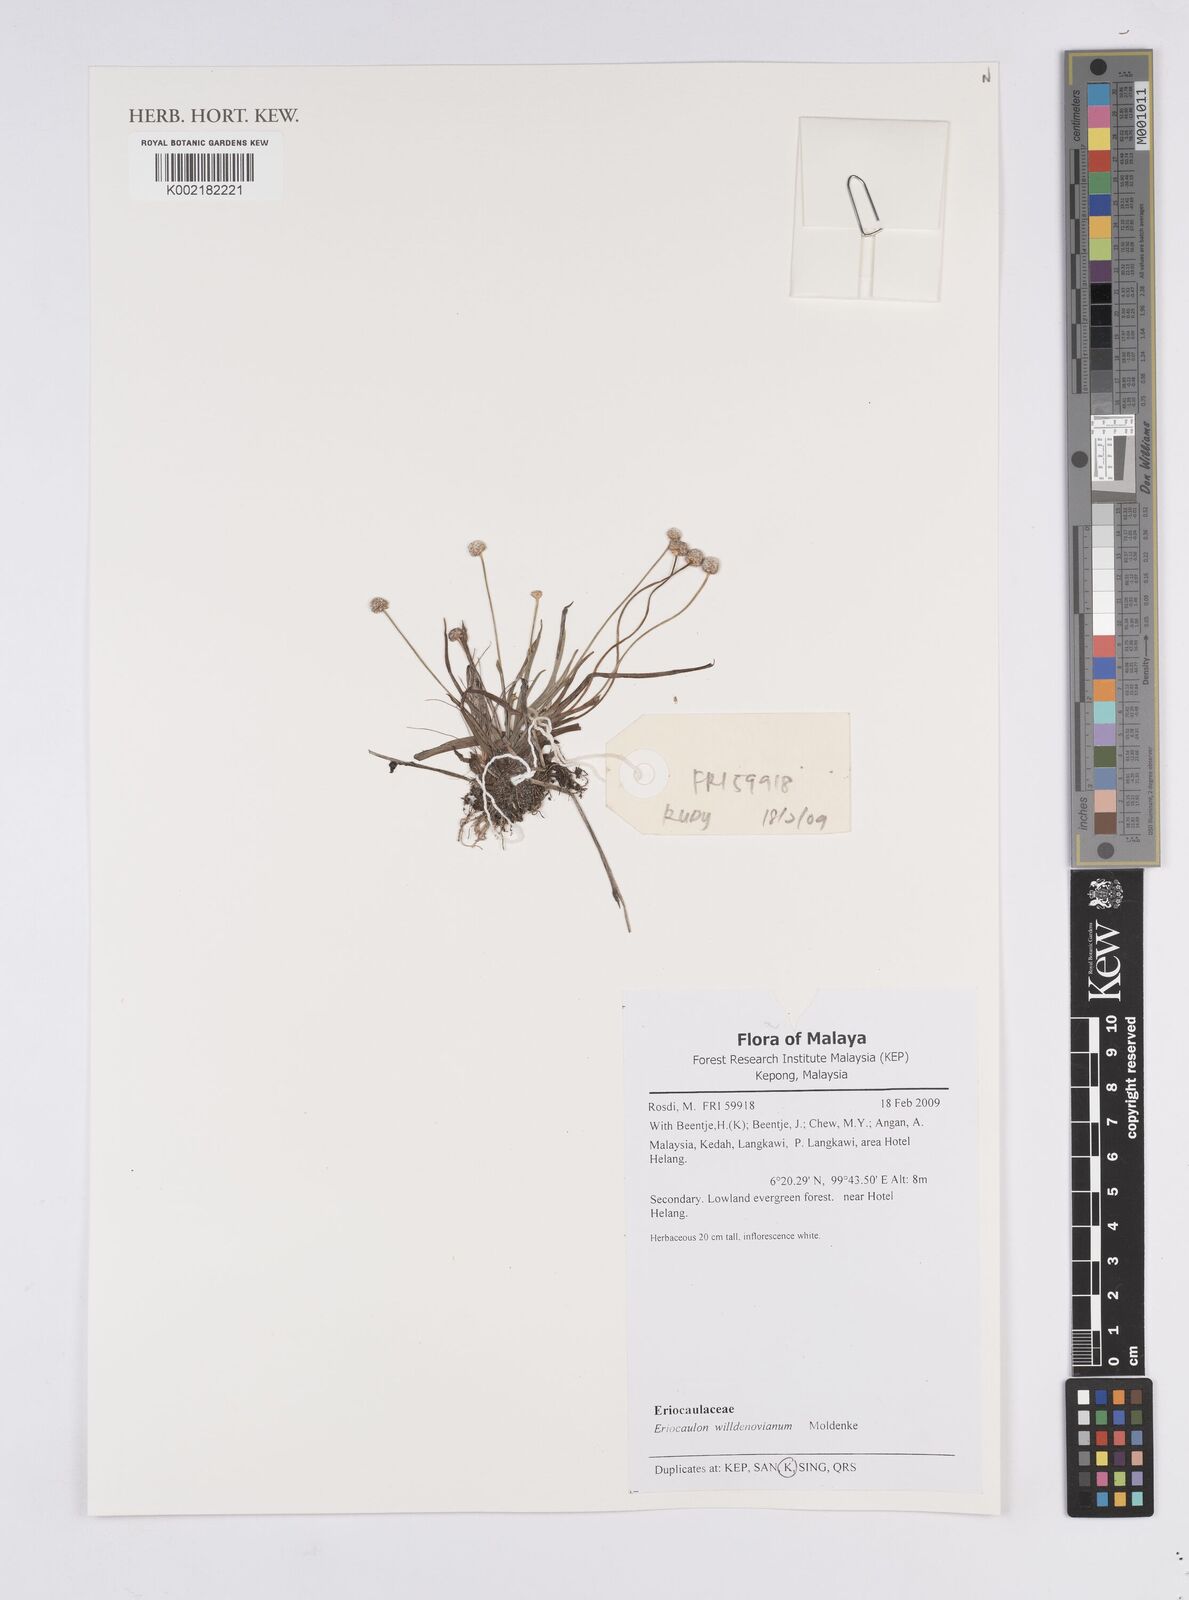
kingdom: Plantae
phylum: Tracheophyta
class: Liliopsida
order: Poales
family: Eriocaulaceae
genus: Eriocaulon
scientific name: Eriocaulon willdenovianum
